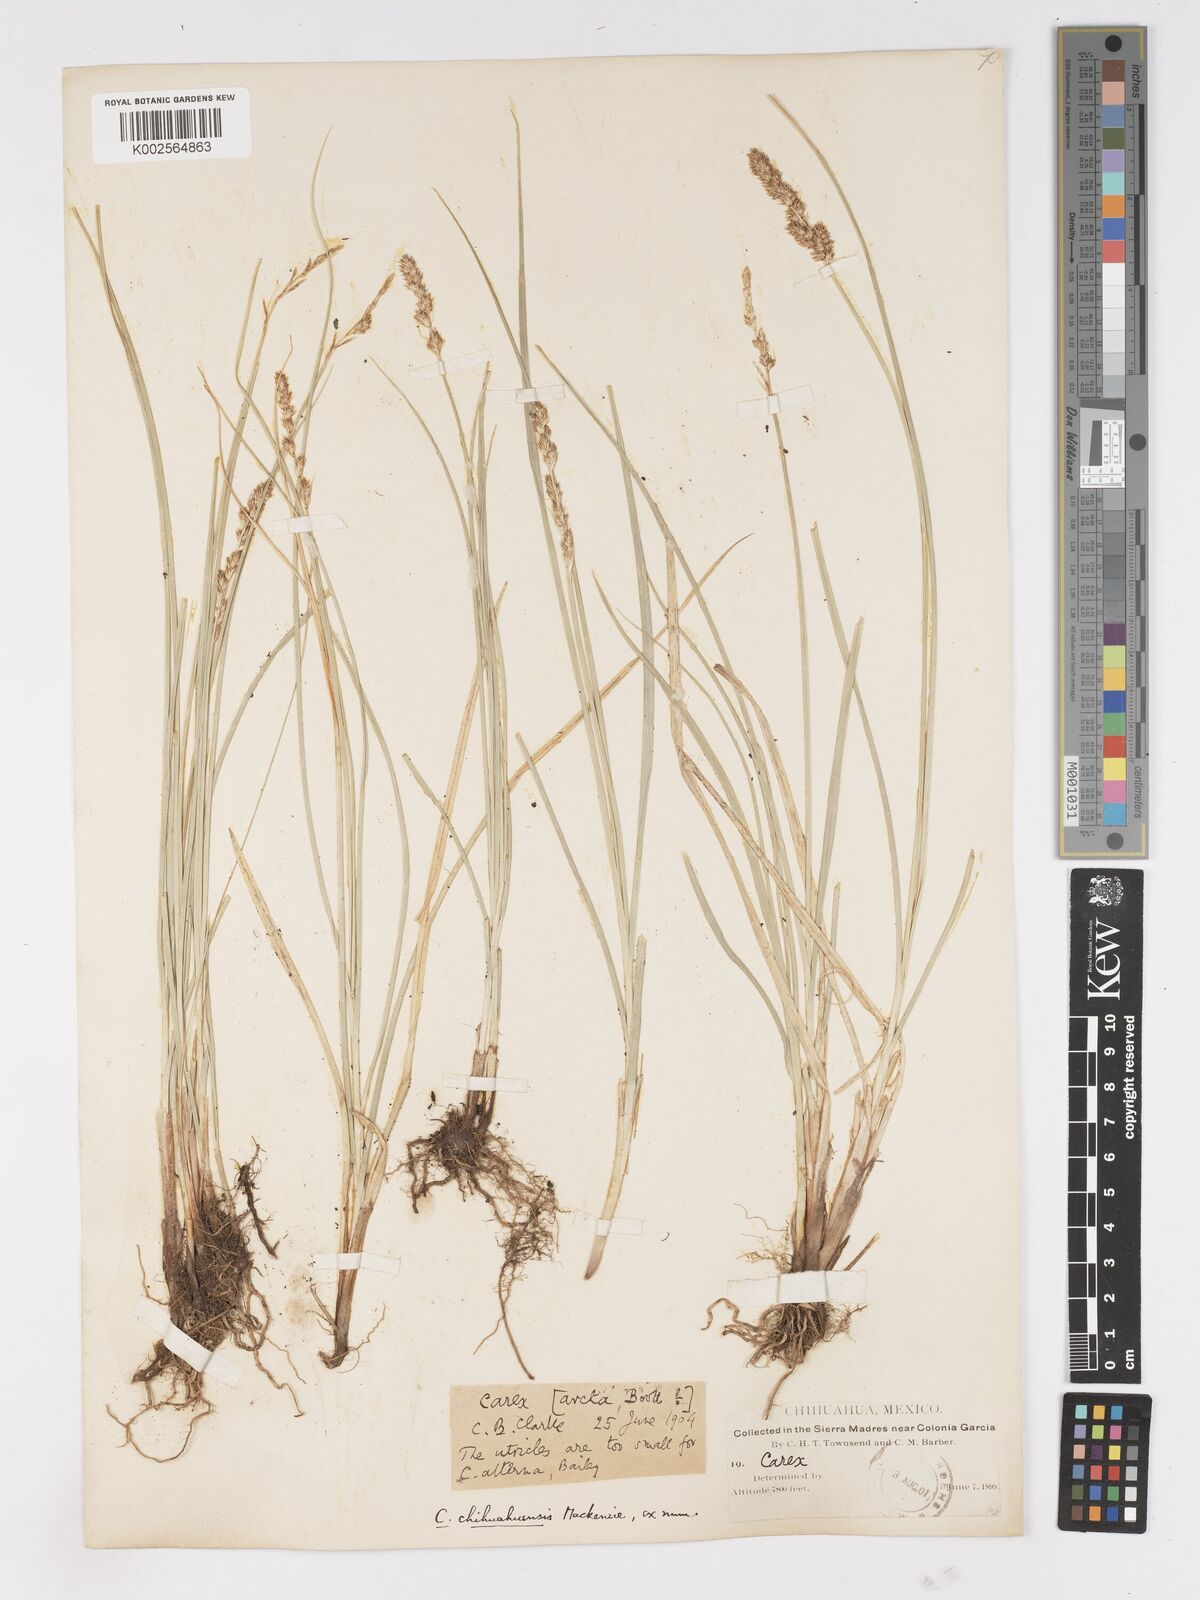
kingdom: Plantae
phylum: Tracheophyta
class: Liliopsida
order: Poales
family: Cyperaceae
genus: Carex
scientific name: Carex chihuahuensis
